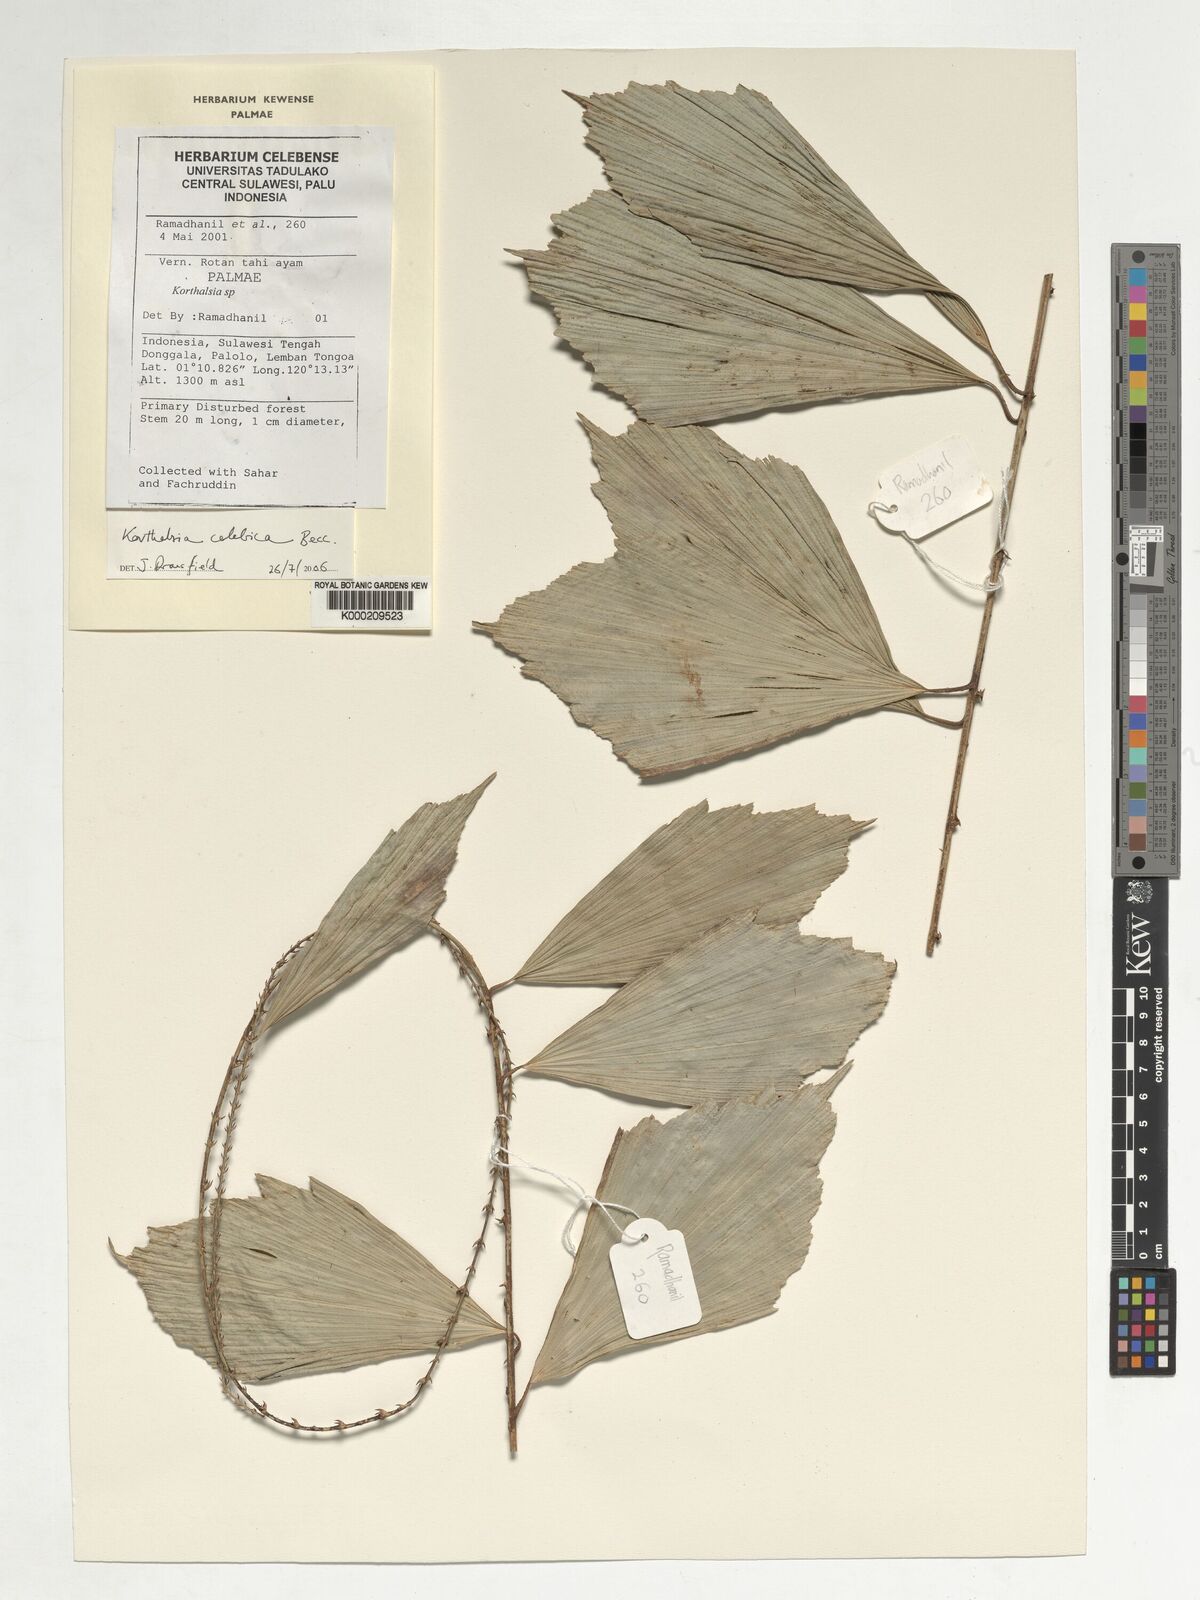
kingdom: Plantae
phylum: Tracheophyta
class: Liliopsida
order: Arecales
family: Arecaceae
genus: Korthalsia
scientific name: Korthalsia celebica
